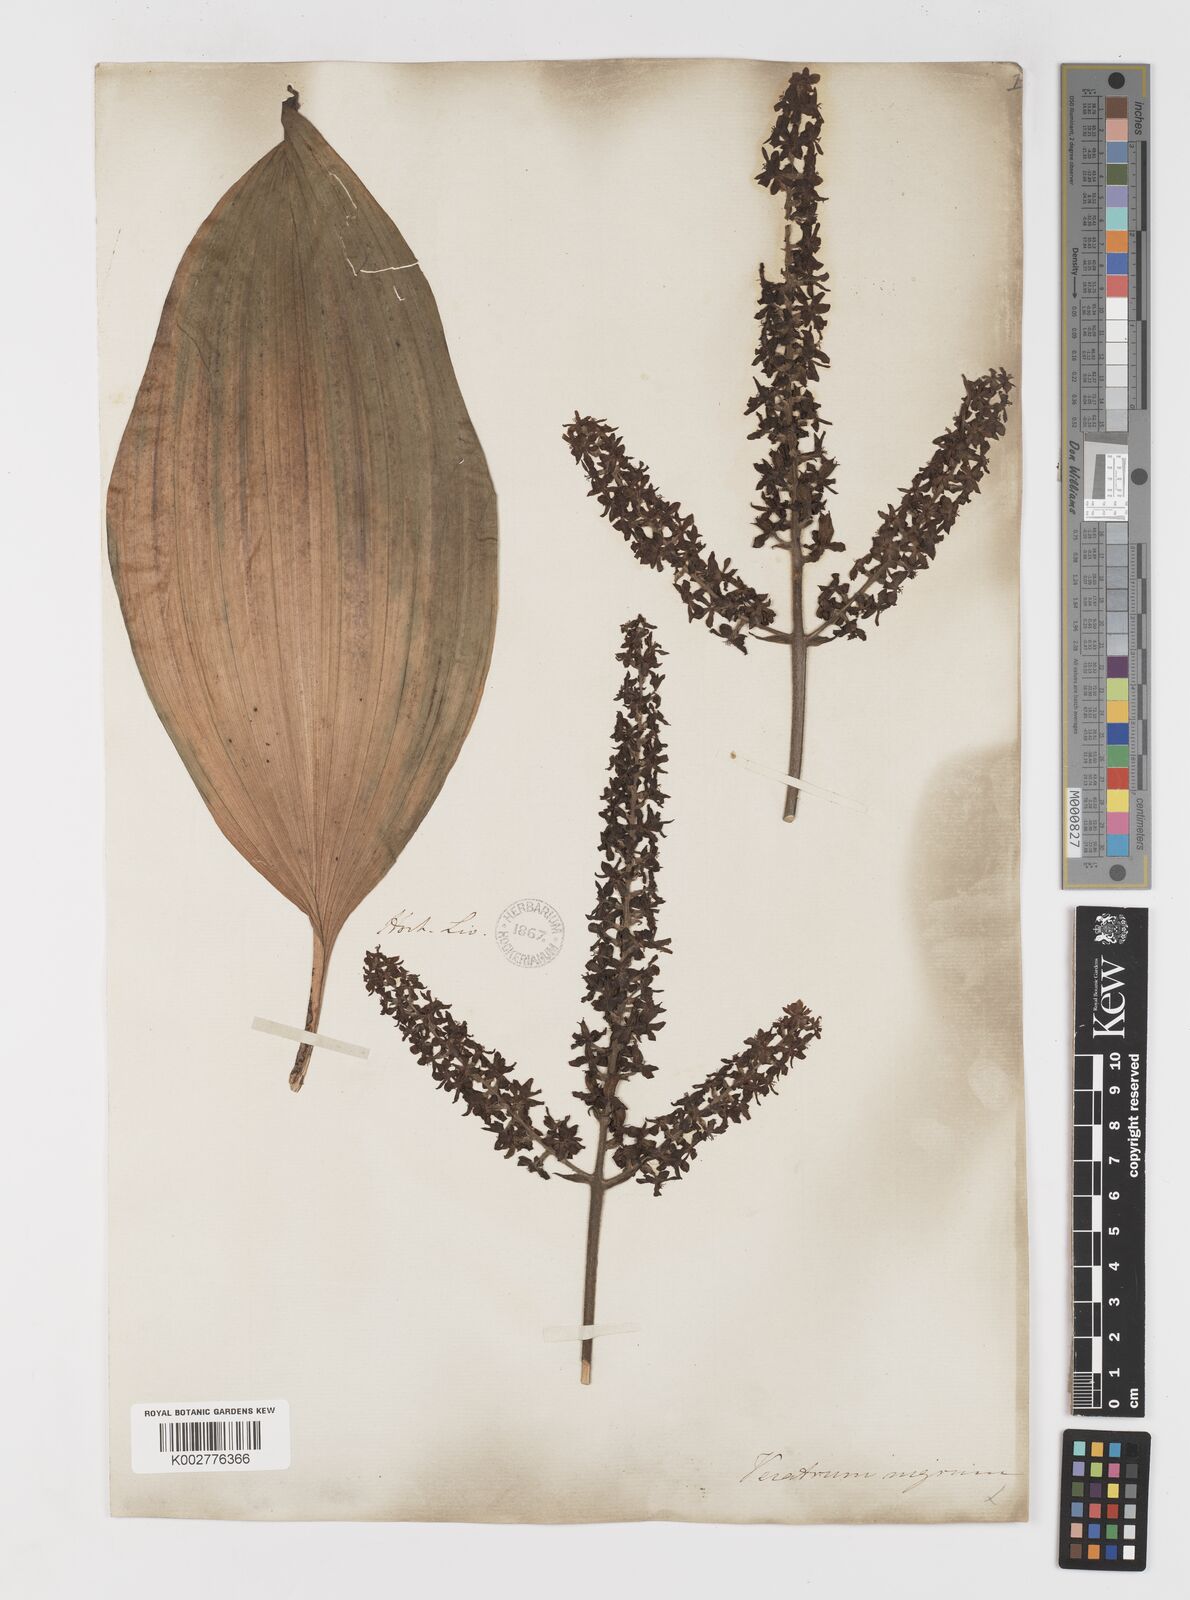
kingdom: Plantae
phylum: Tracheophyta
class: Liliopsida
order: Liliales
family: Melanthiaceae
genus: Veratrum
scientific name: Veratrum
